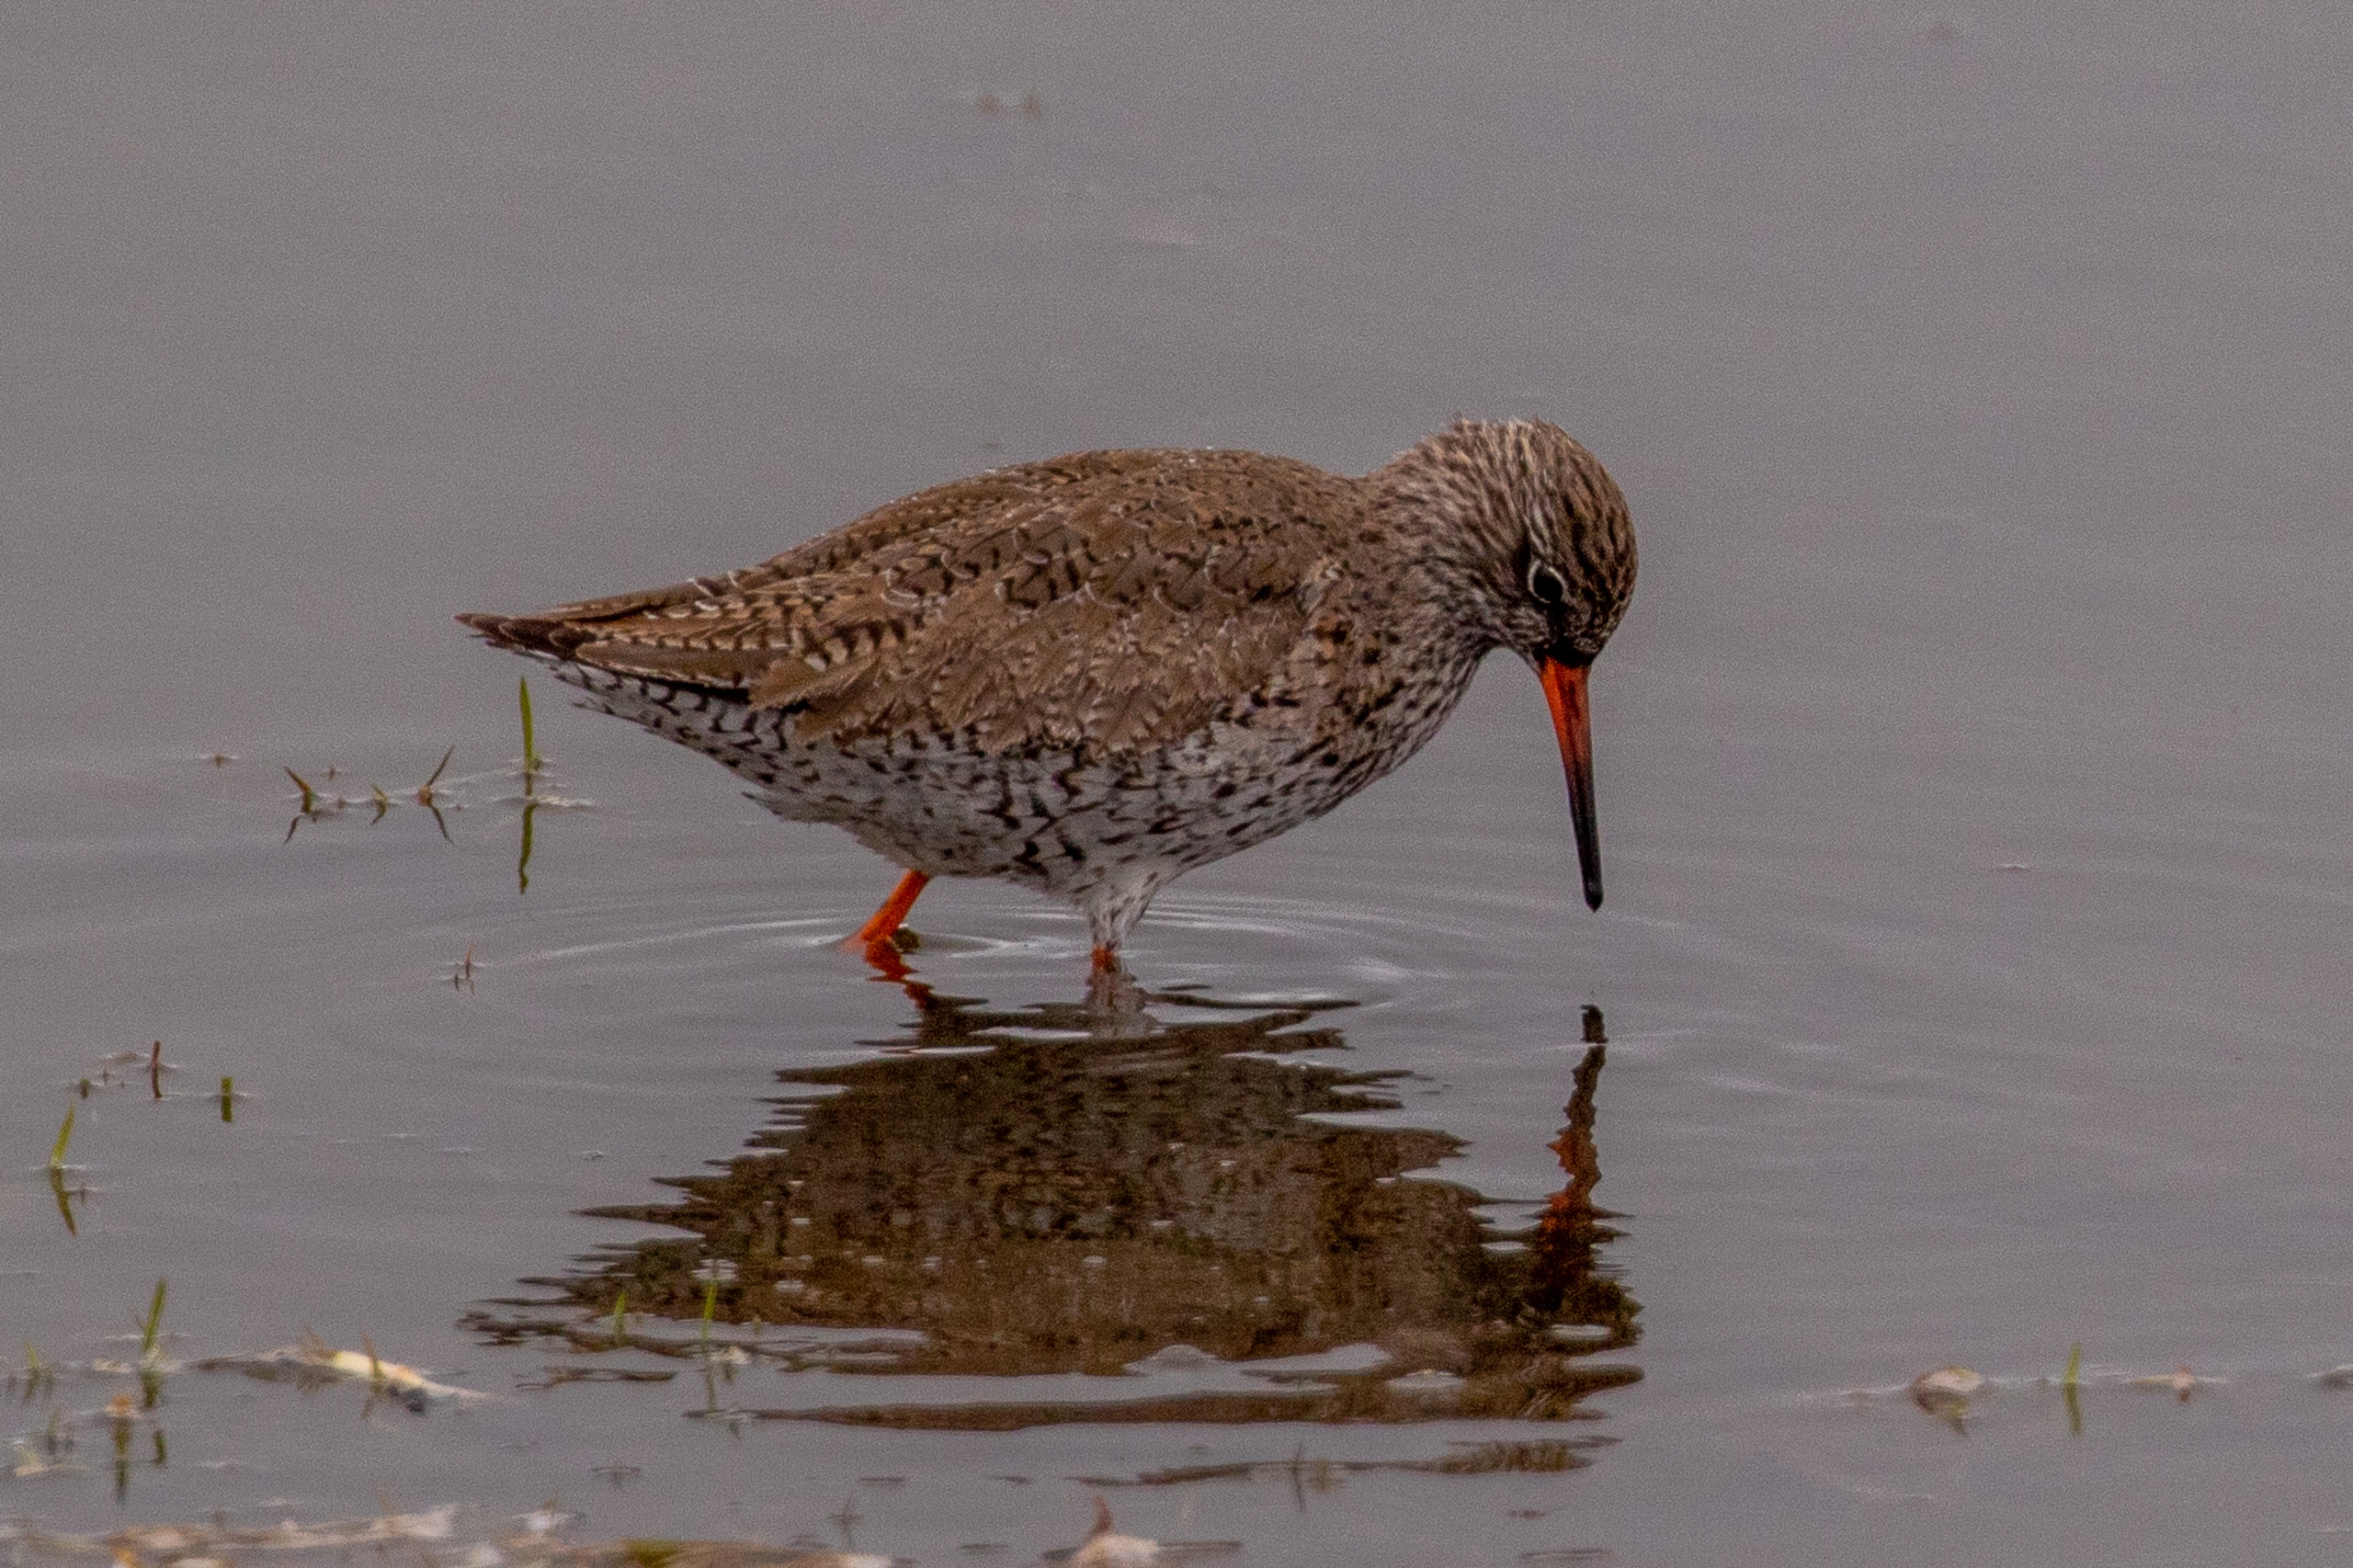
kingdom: Animalia
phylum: Chordata
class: Aves
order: Charadriiformes
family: Scolopacidae
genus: Tringa
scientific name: Tringa totanus
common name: Rødben
